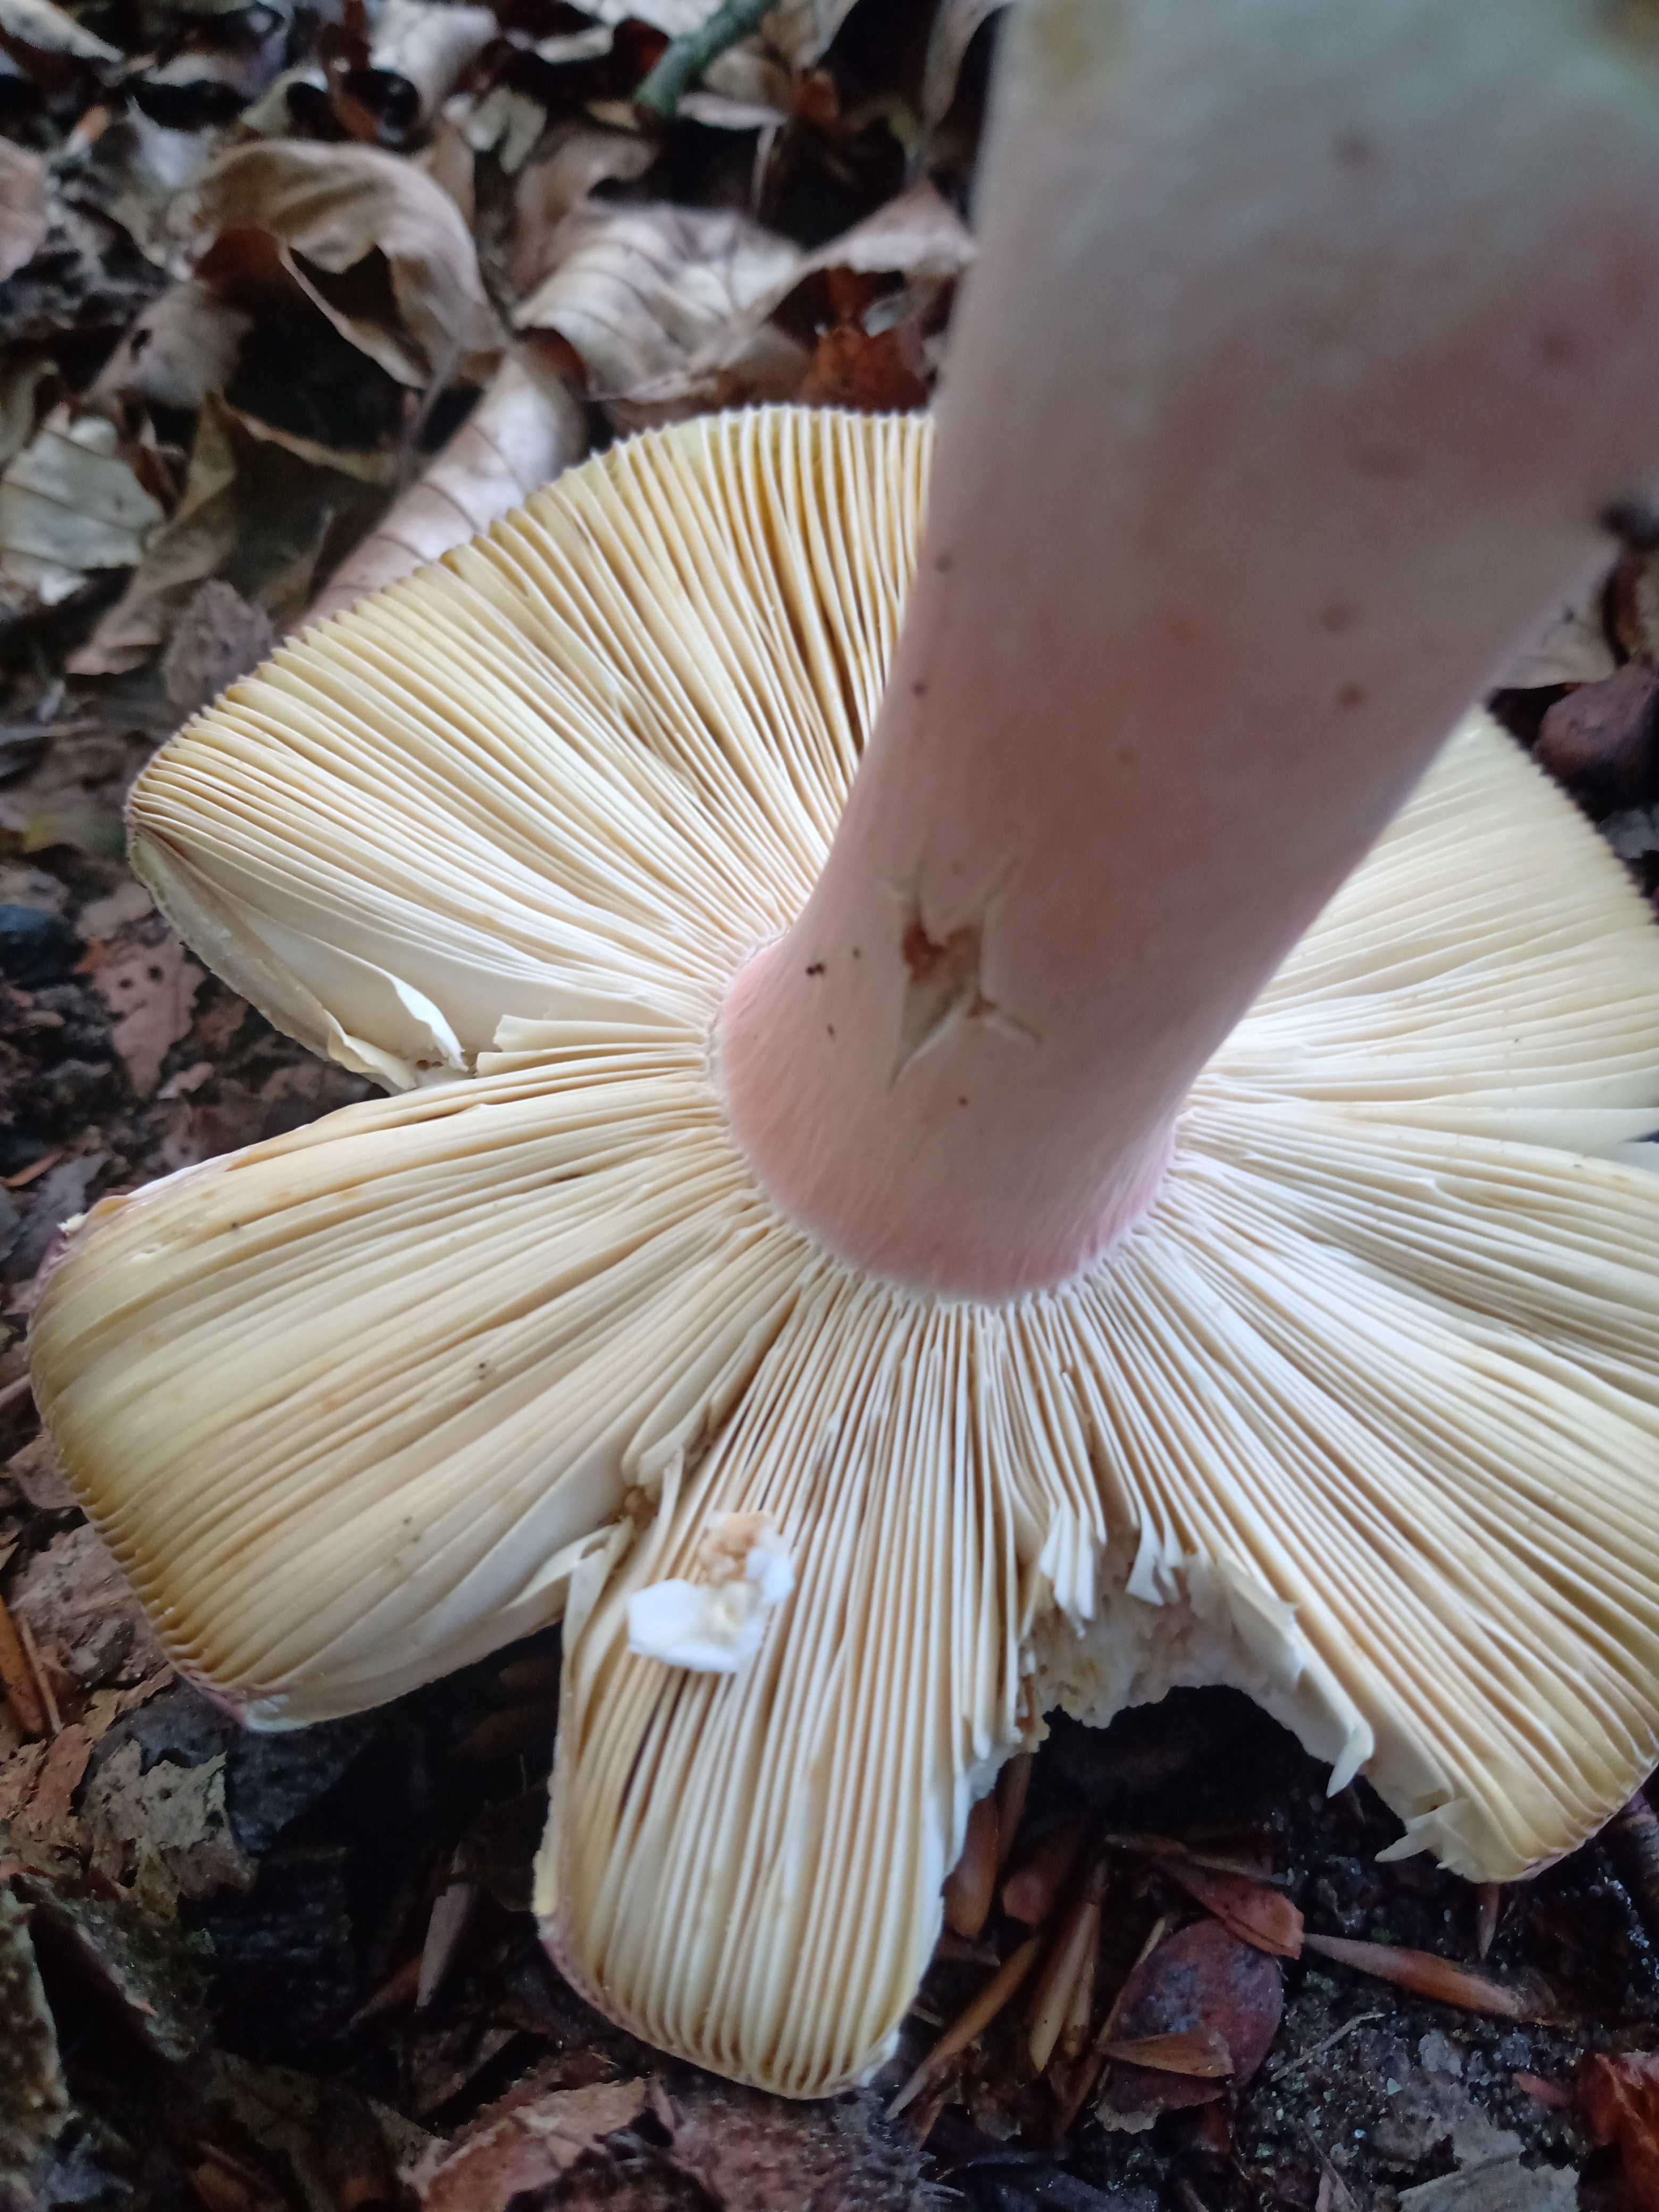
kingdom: Fungi
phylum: Basidiomycota
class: Agaricomycetes
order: Russulales
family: Russulaceae
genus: Russula
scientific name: Russula olivacea
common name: stor skørhat
